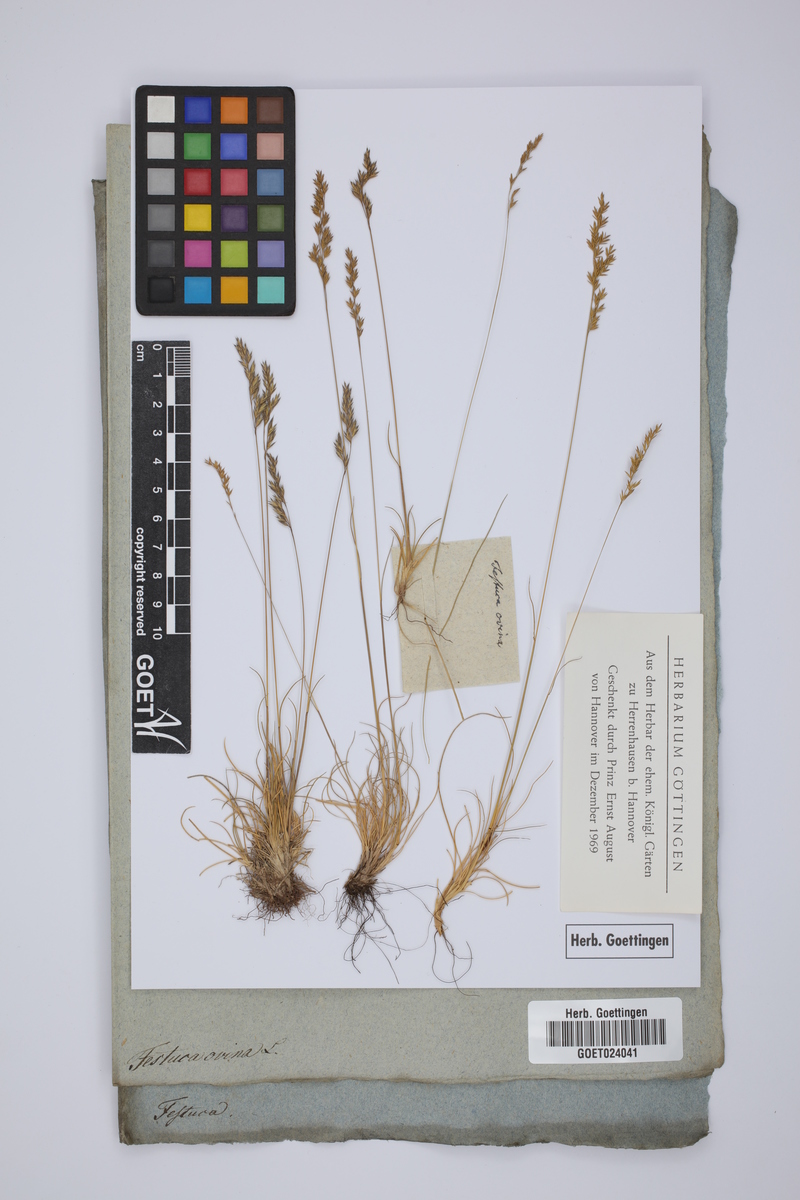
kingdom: Plantae
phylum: Tracheophyta
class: Liliopsida
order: Poales
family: Poaceae
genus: Festuca
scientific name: Festuca ovina
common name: Sheep fescue
